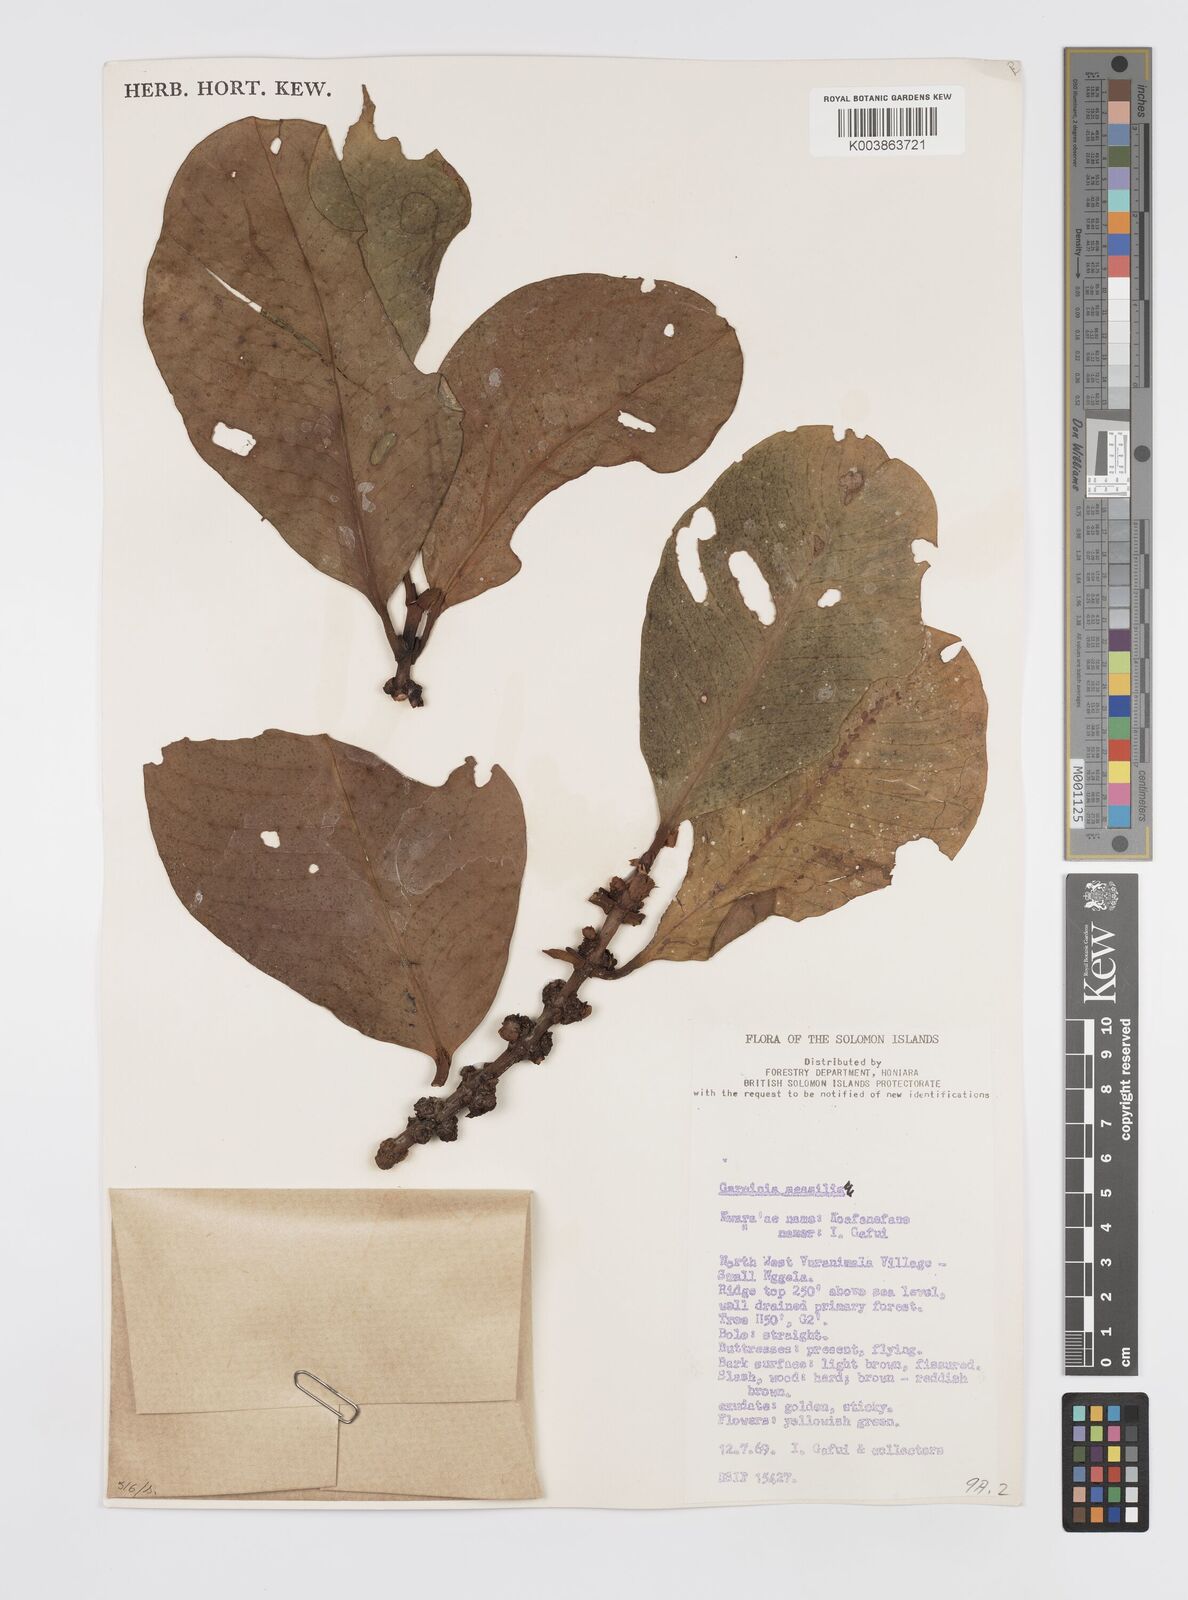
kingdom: Plantae
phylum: Tracheophyta
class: Magnoliopsida
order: Malpighiales
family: Clusiaceae
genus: Garcinia
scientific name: Garcinia sessilis
